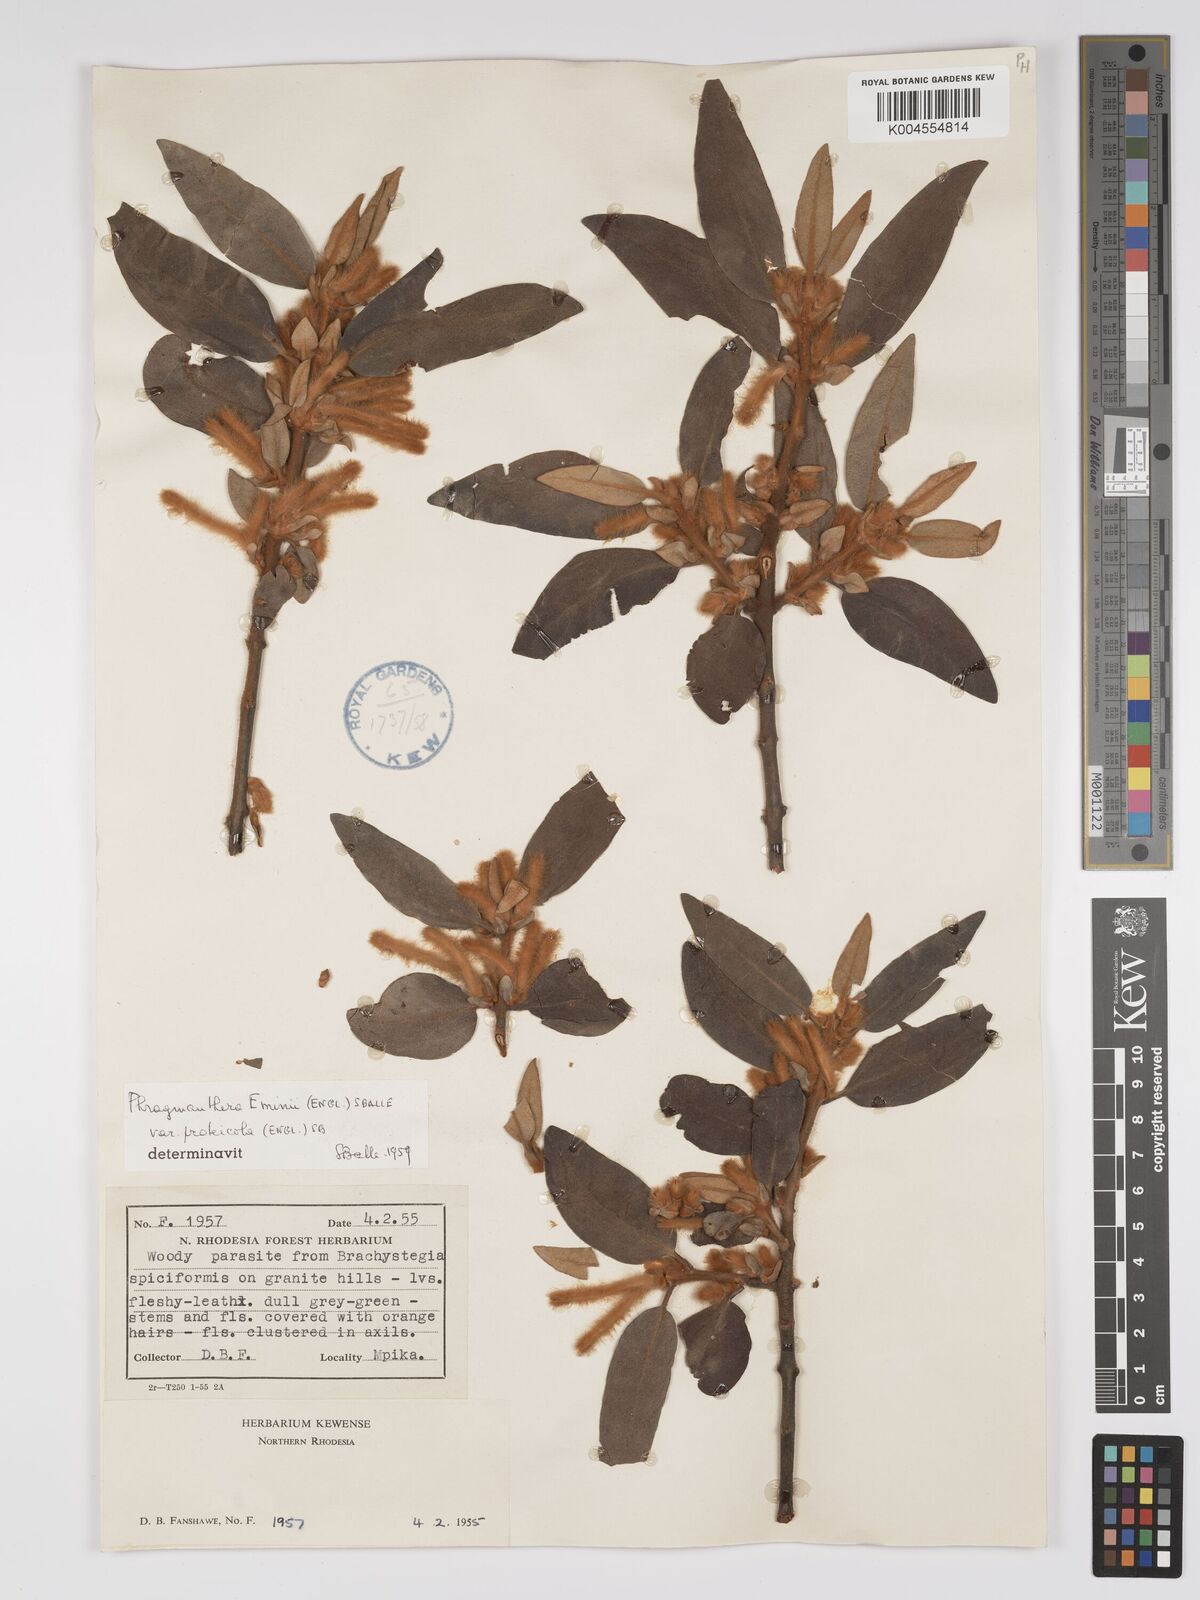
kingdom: Plantae
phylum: Tracheophyta
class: Magnoliopsida
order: Santalales
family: Loranthaceae
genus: Phragmanthera
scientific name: Phragmanthera proteicola
